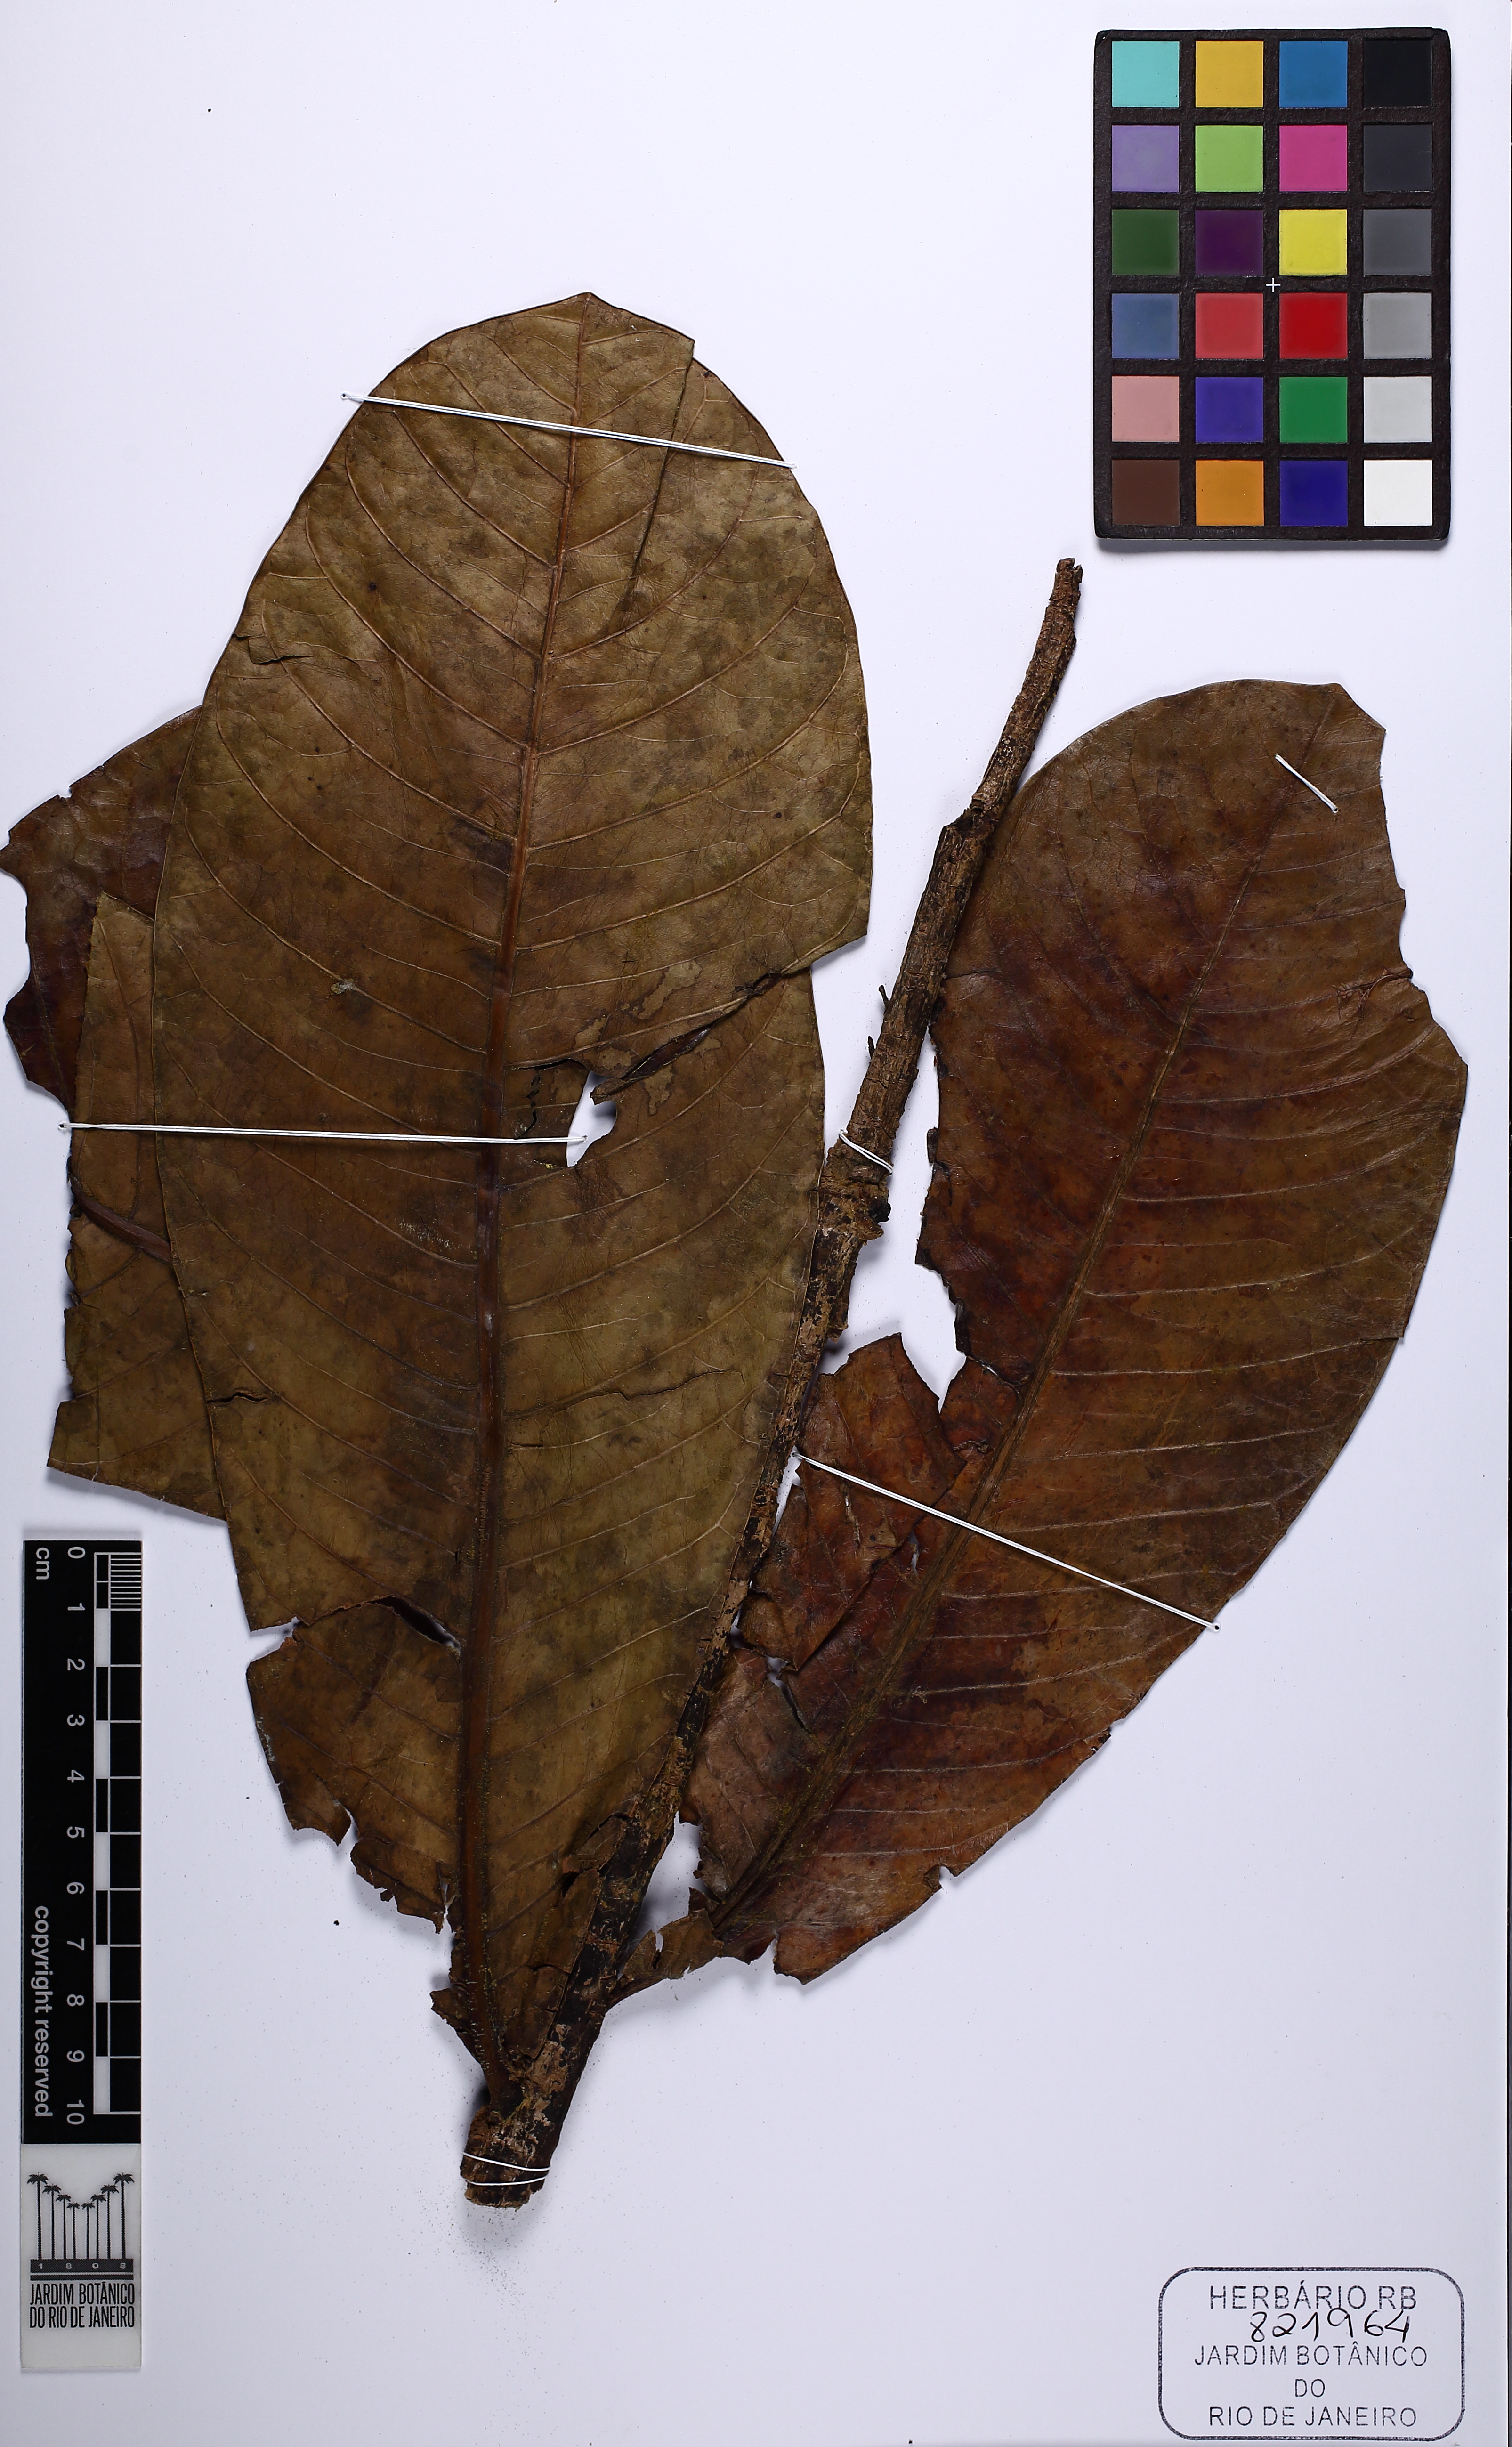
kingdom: Plantae
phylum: Tracheophyta
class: Magnoliopsida
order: Gentianales
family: Apocynaceae
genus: Himatanthus
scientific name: Himatanthus
